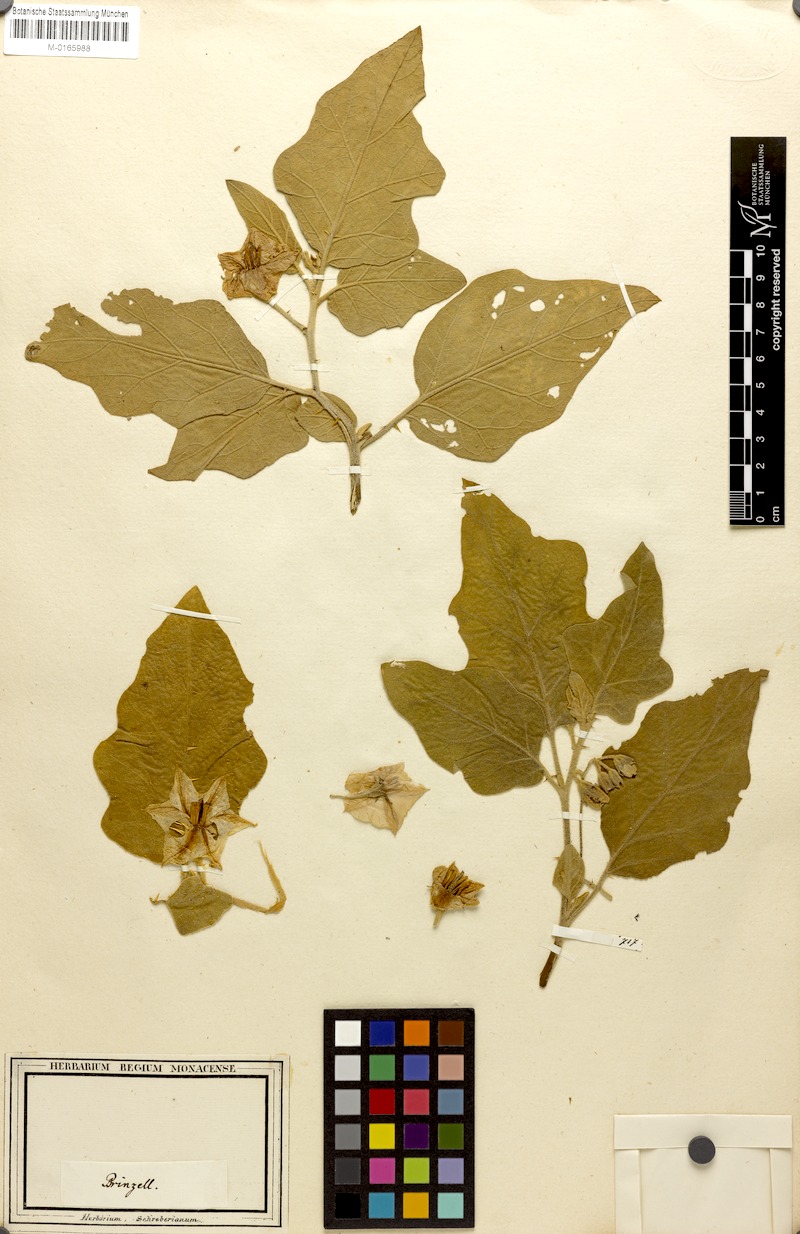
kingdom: Plantae
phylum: Tracheophyta
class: Magnoliopsida
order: Solanales
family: Solanaceae
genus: Solanum
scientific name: Solanum melongena
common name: Eggplant
